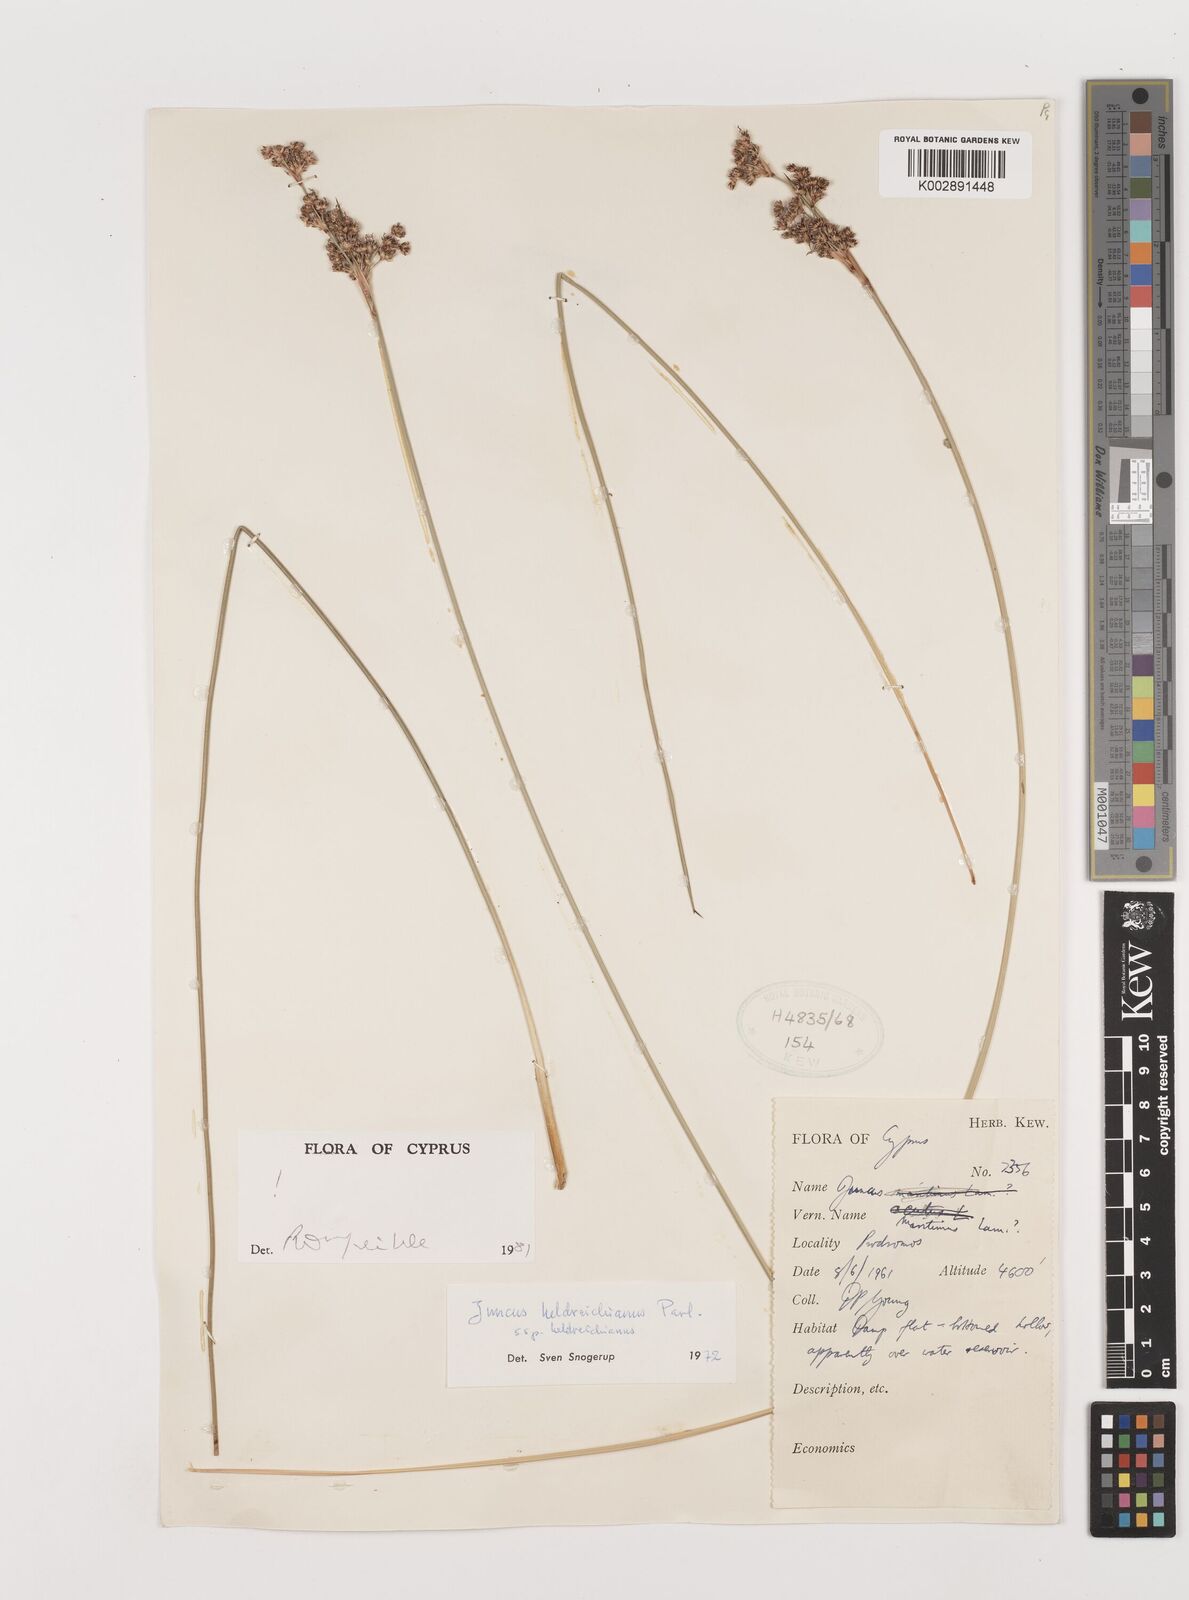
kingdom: Plantae
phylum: Tracheophyta
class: Liliopsida
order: Poales
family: Juncaceae
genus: Juncus
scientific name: Juncus heldreichianus
